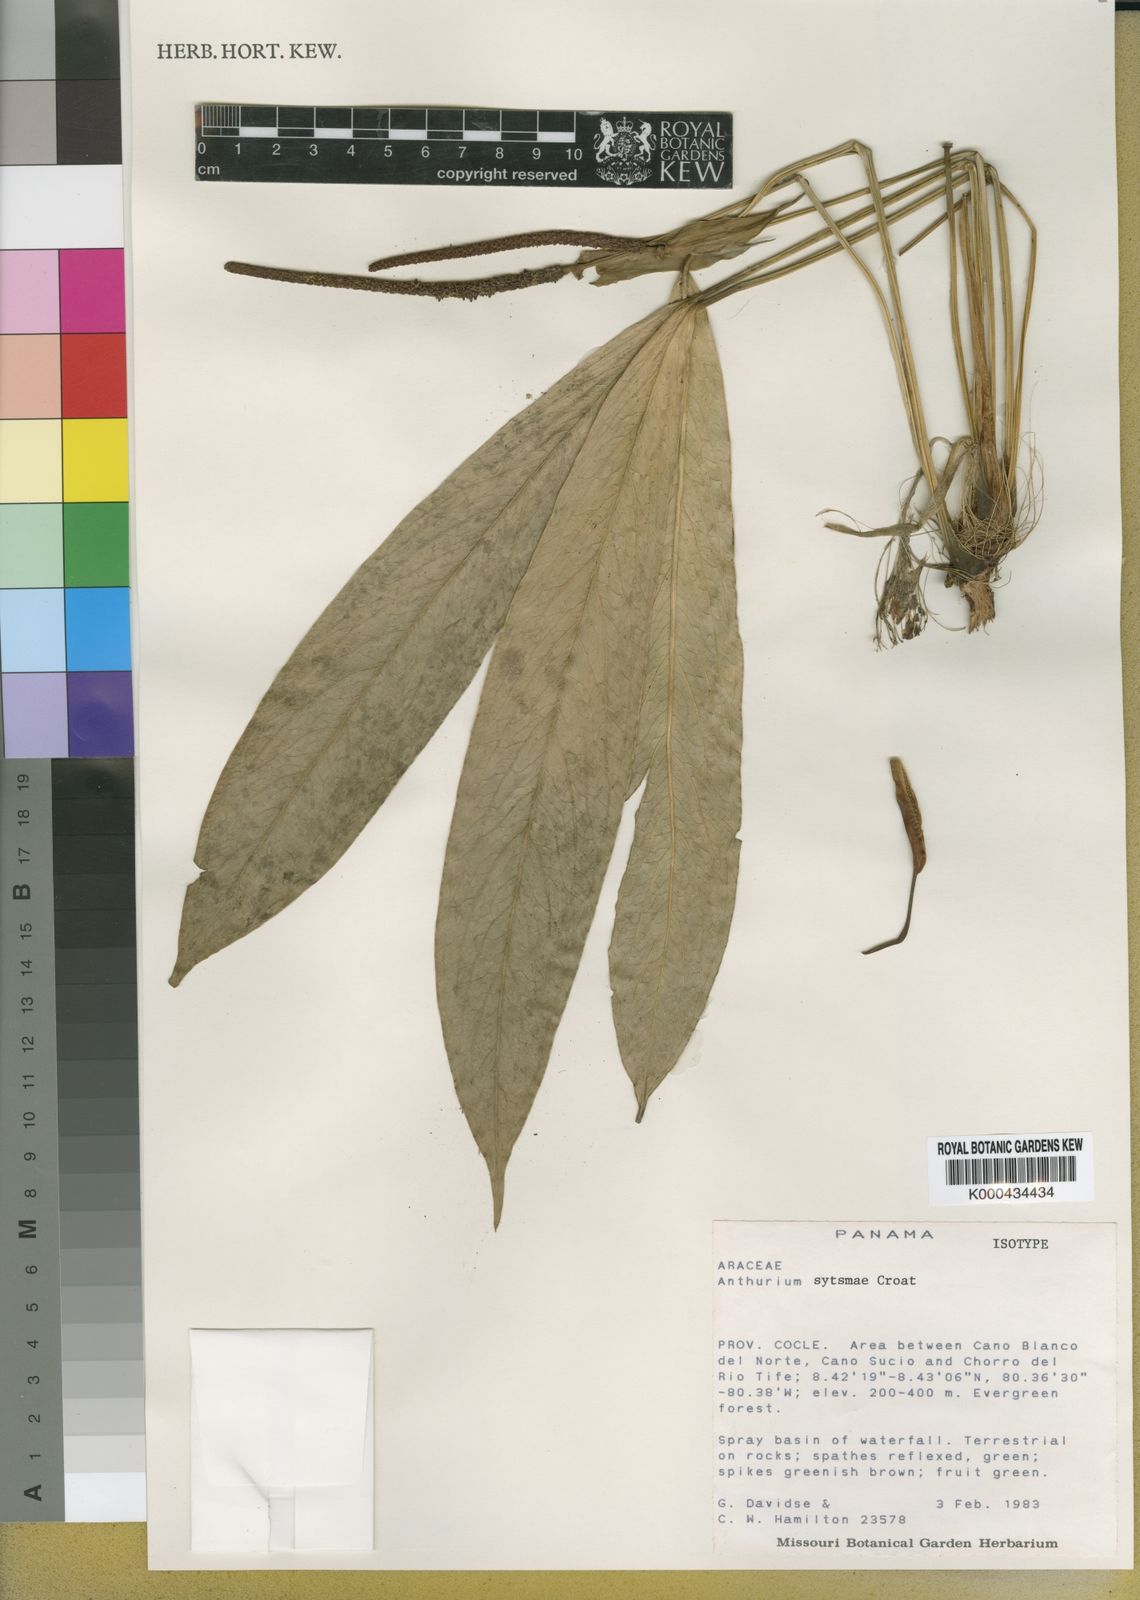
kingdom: Plantae
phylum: Tracheophyta
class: Liliopsida
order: Alismatales
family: Araceae
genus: Anthurium
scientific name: Anthurium sytsmae
